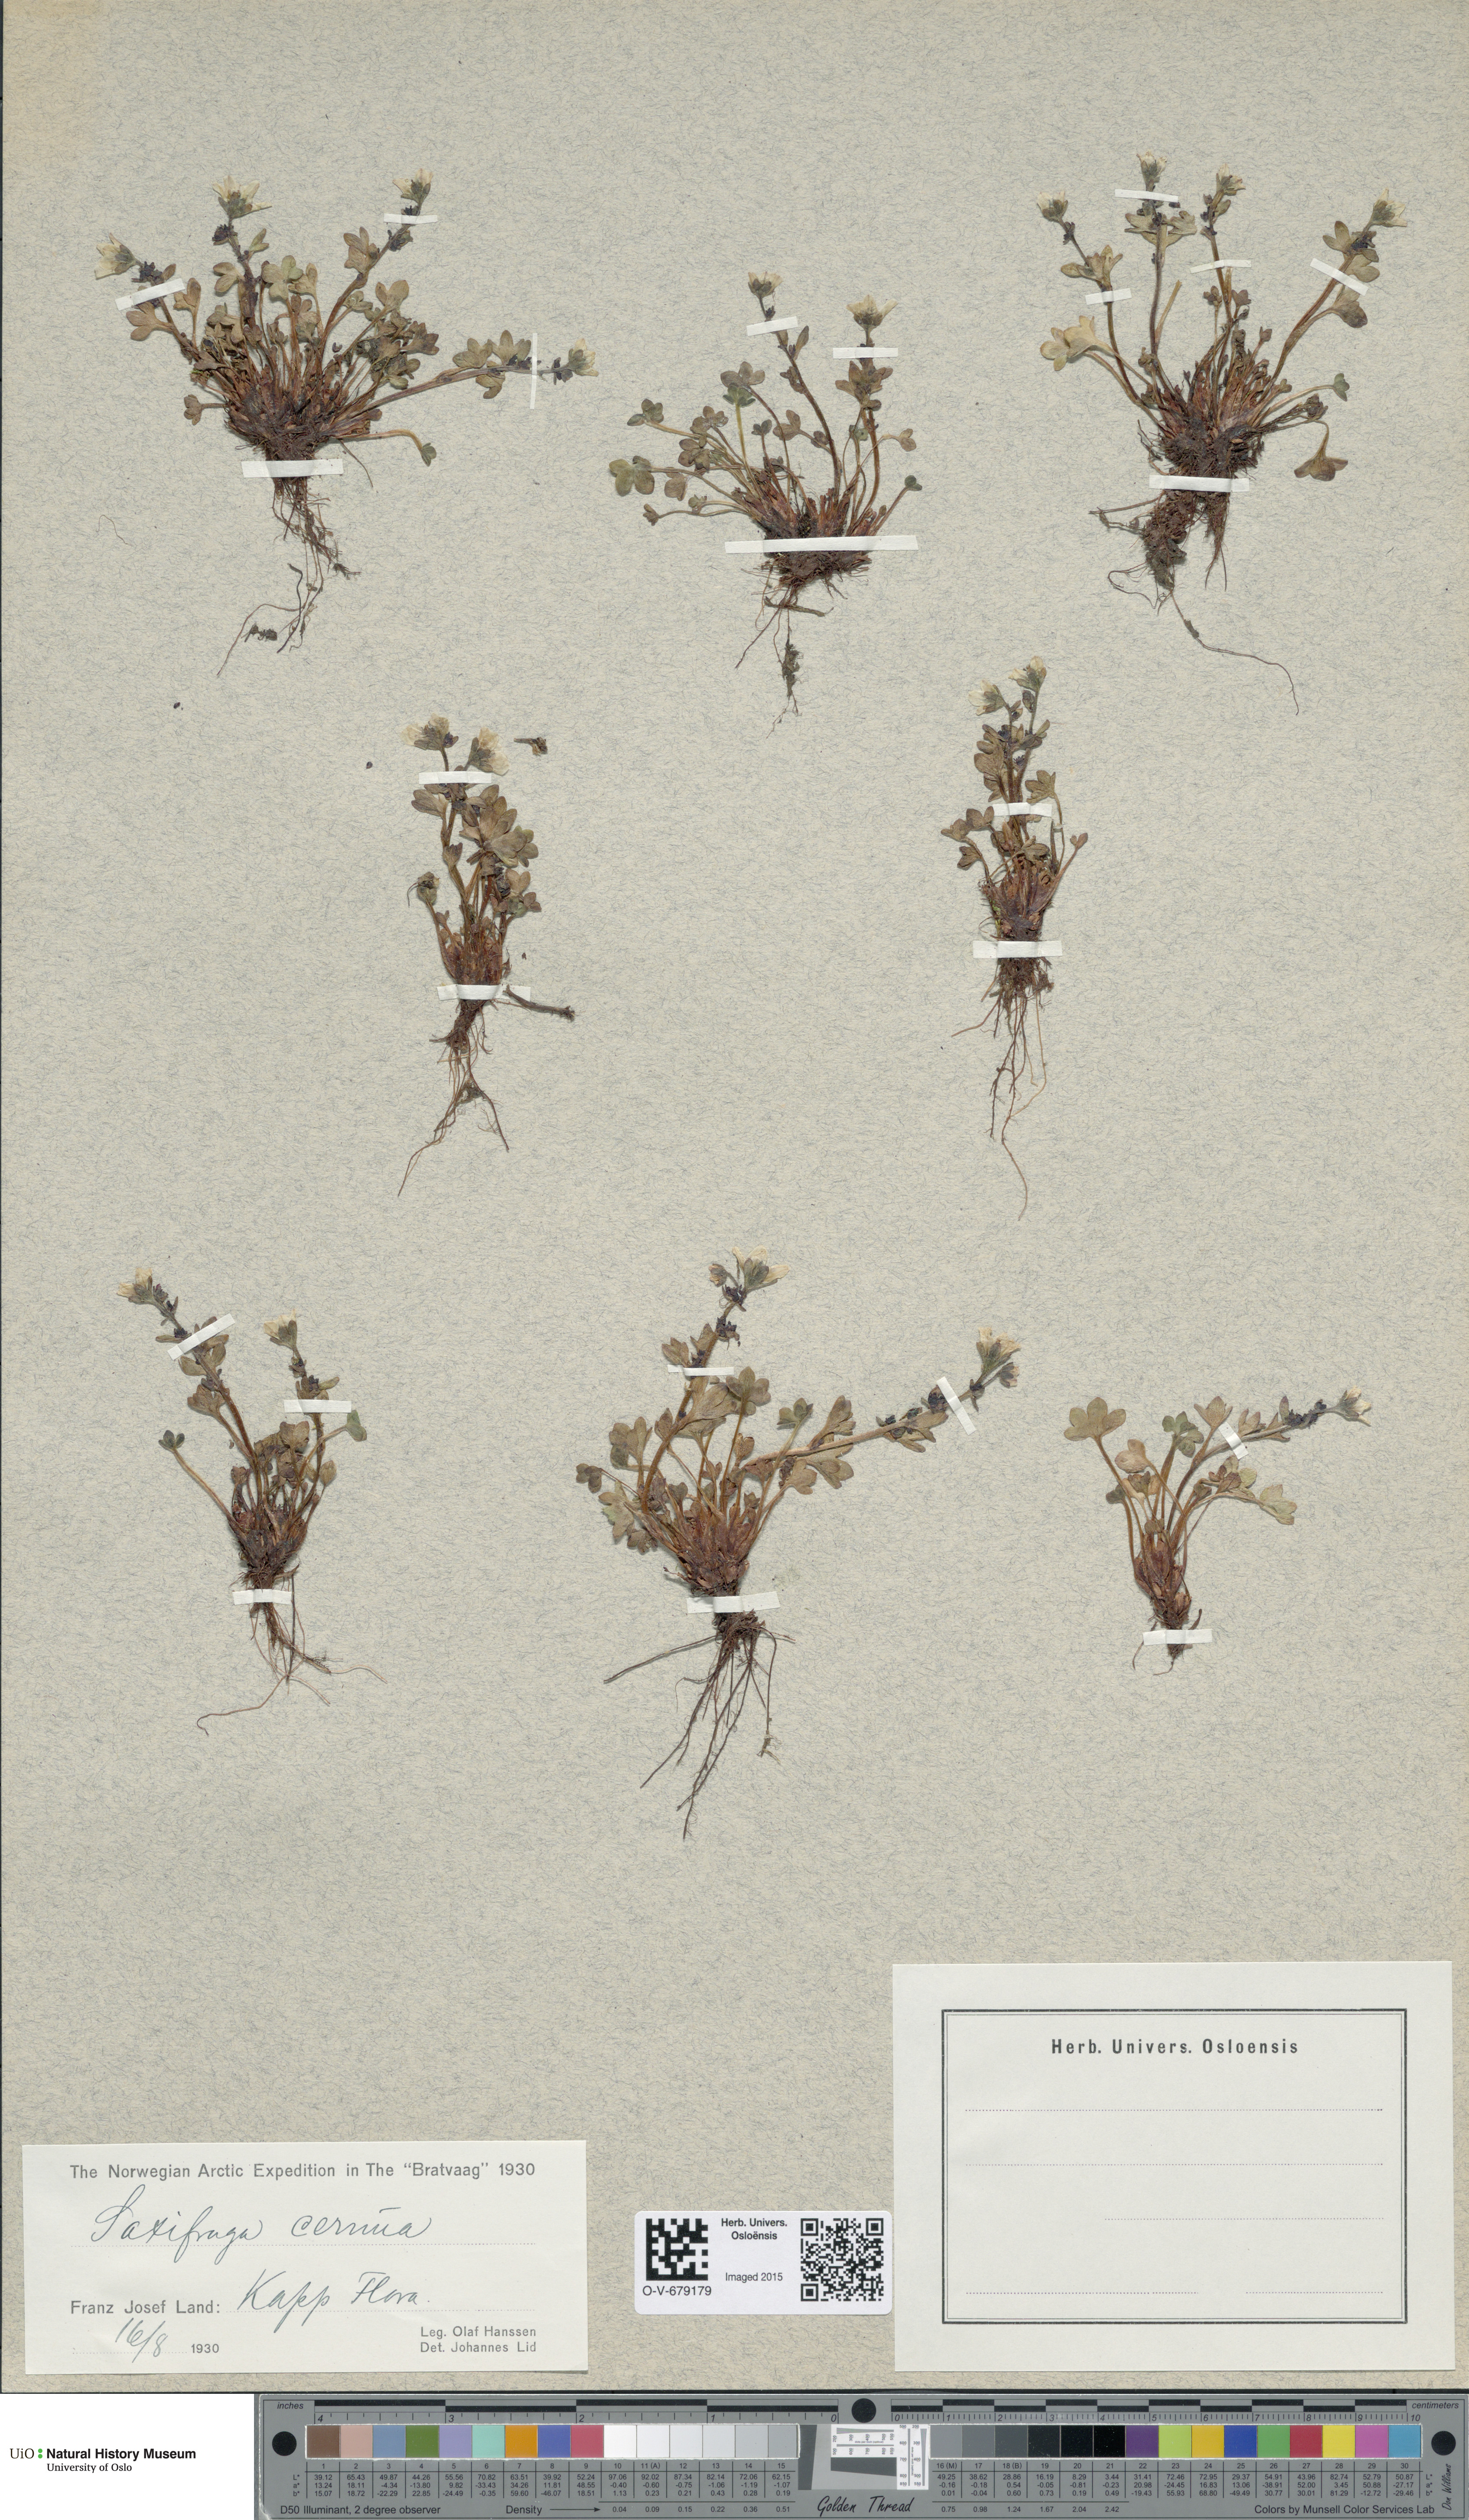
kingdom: Plantae
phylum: Tracheophyta
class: Magnoliopsida
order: Saxifragales
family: Saxifragaceae
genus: Saxifraga
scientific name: Saxifraga cernua
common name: Drooping saxifrage
